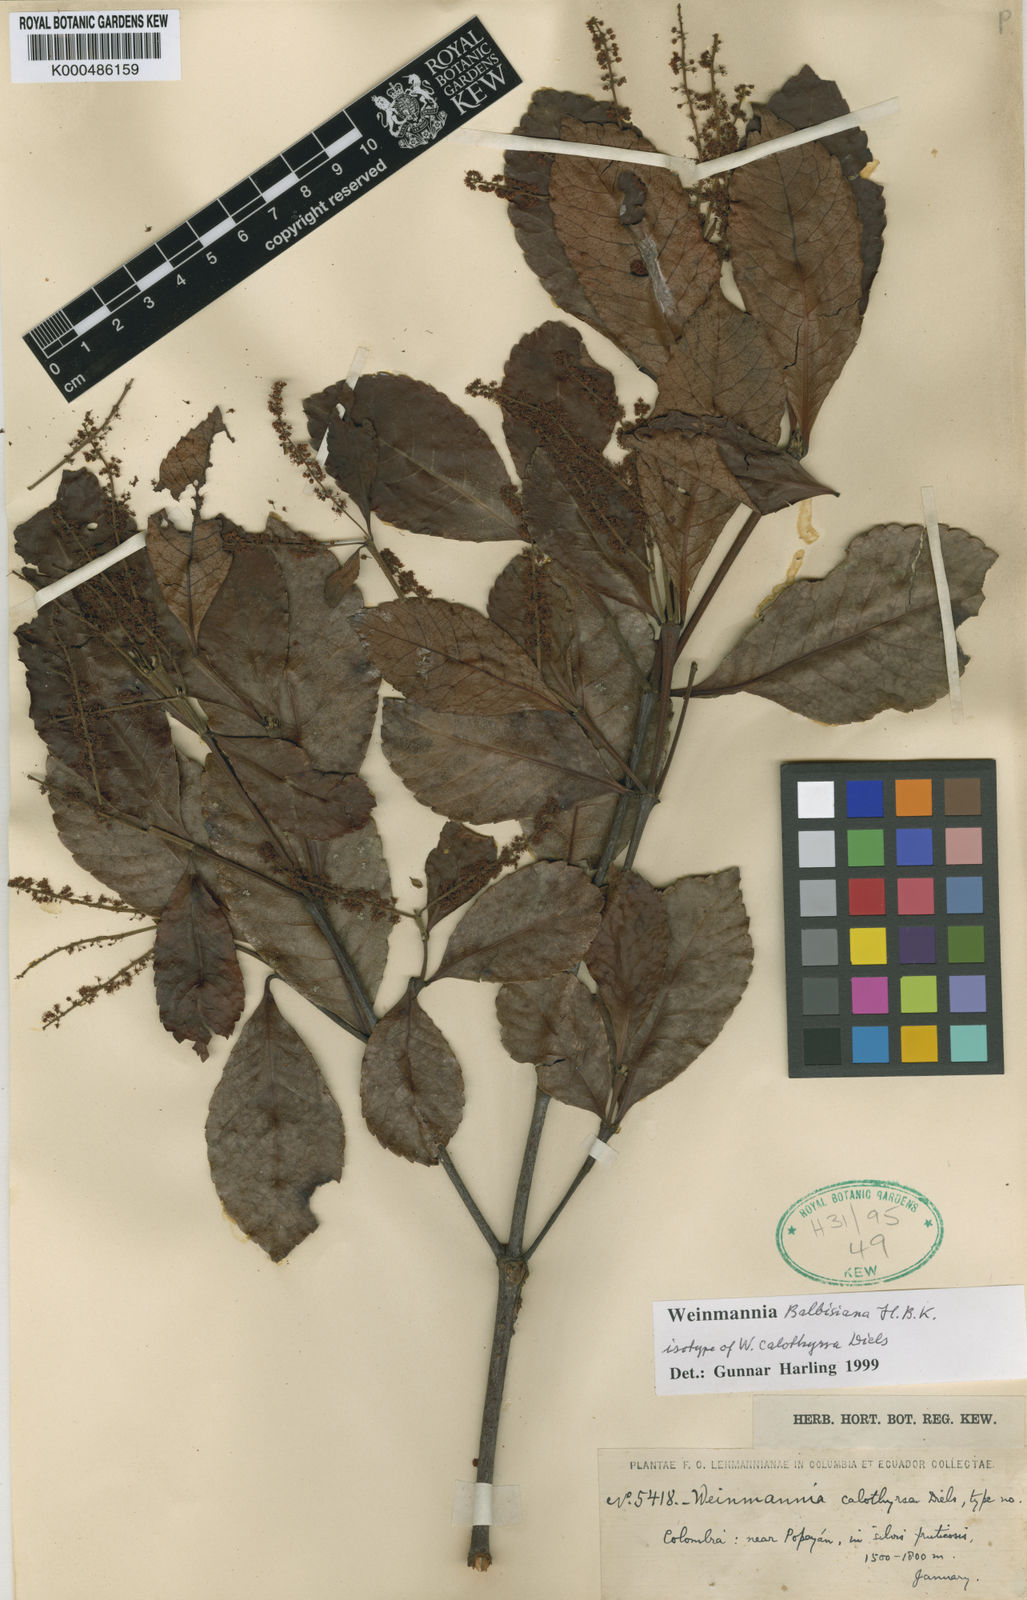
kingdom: Plantae
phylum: Tracheophyta
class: Magnoliopsida
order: Oxalidales
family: Cunoniaceae
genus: Weinmannia
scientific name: Weinmannia balbisana
